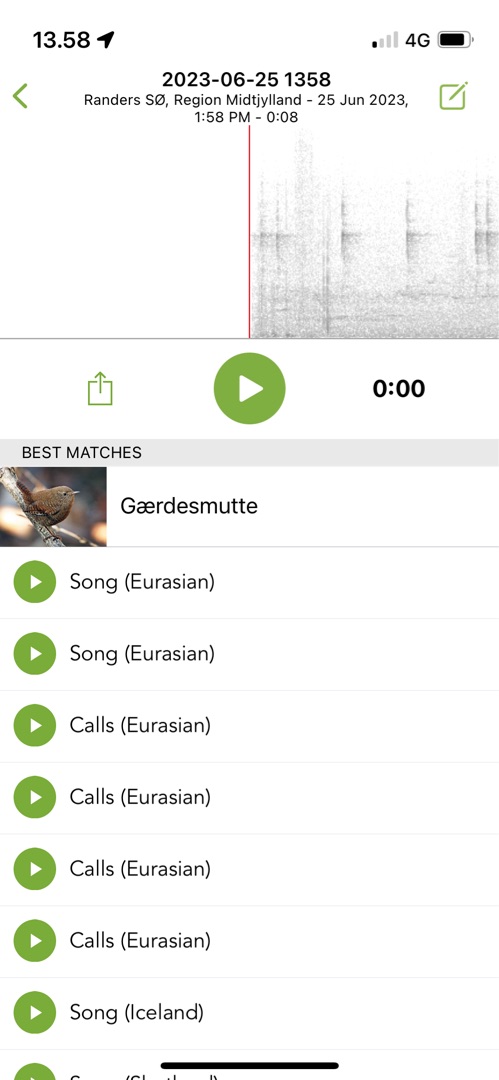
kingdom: Animalia
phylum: Chordata
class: Aves
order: Passeriformes
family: Troglodytidae
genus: Troglodytes
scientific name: Troglodytes troglodytes
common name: Gærdesmutte
